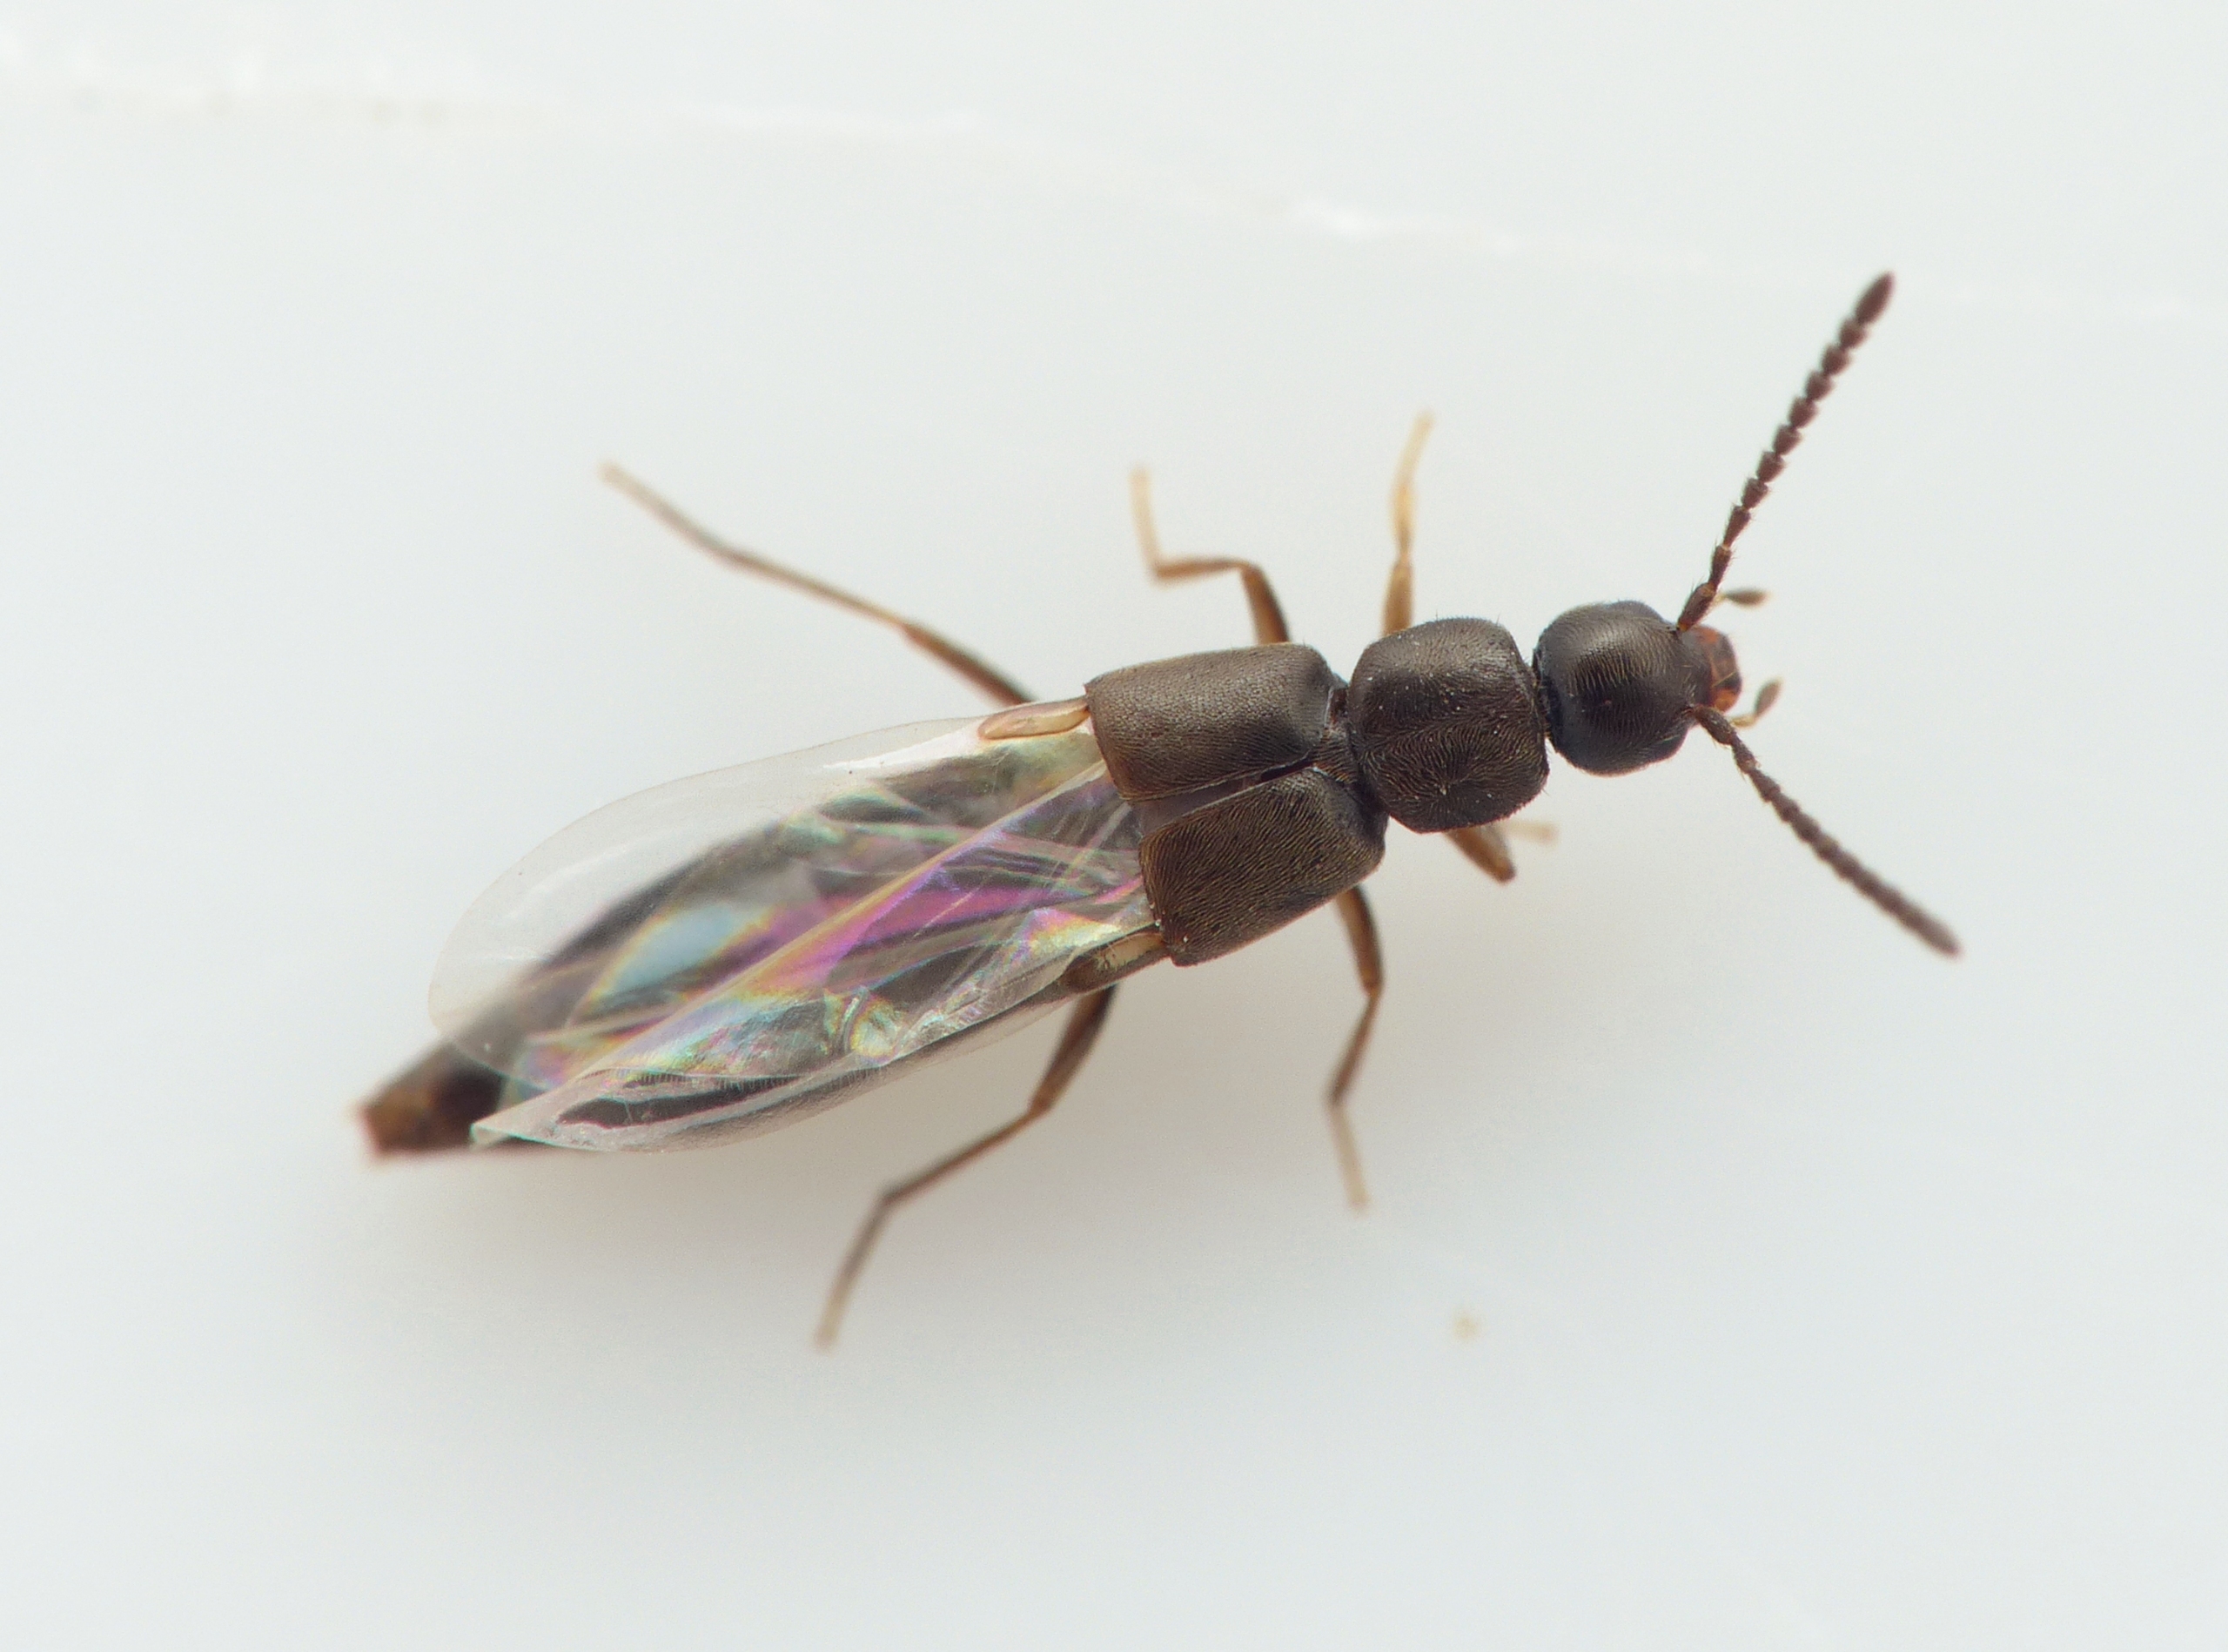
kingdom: Animalia
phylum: Arthropoda
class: Insecta
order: Coleoptera
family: Staphylinidae
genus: Aloconota
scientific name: Aloconota gregaria
